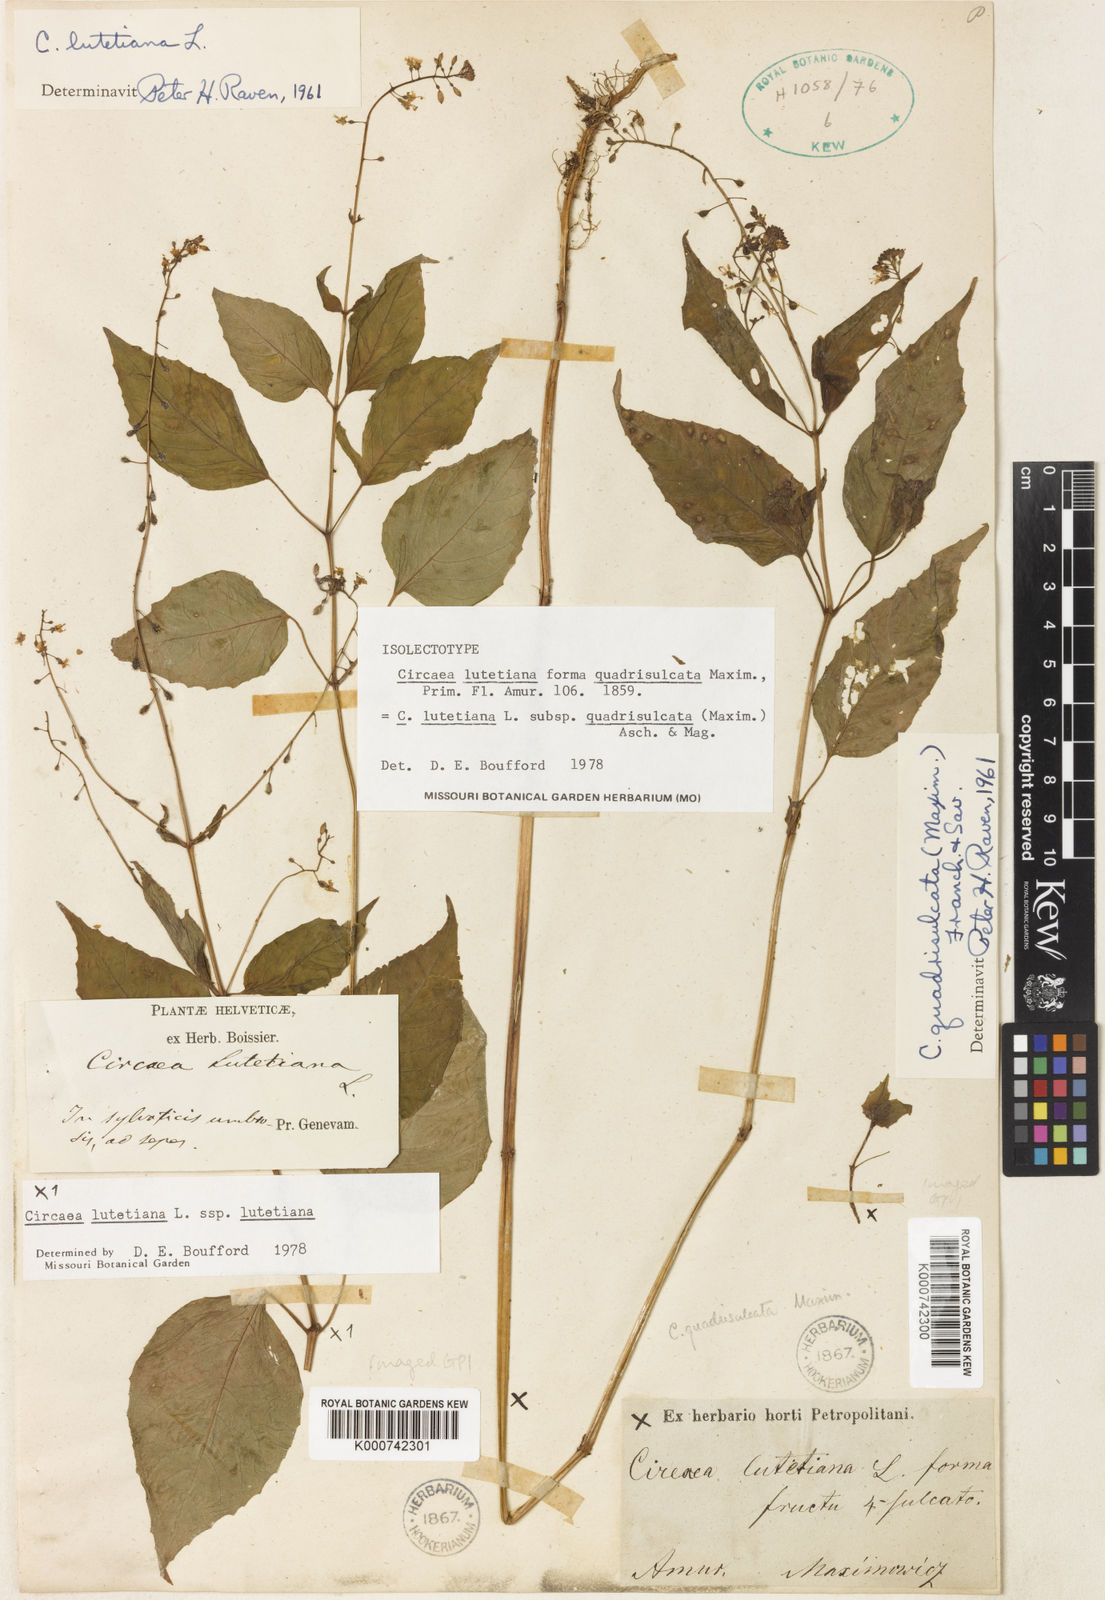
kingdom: Plantae
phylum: Tracheophyta
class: Magnoliopsida
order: Myrtales
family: Onagraceae
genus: Circaea
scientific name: Circaea canadensis
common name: Broad-leaved enchanter's nightshade
